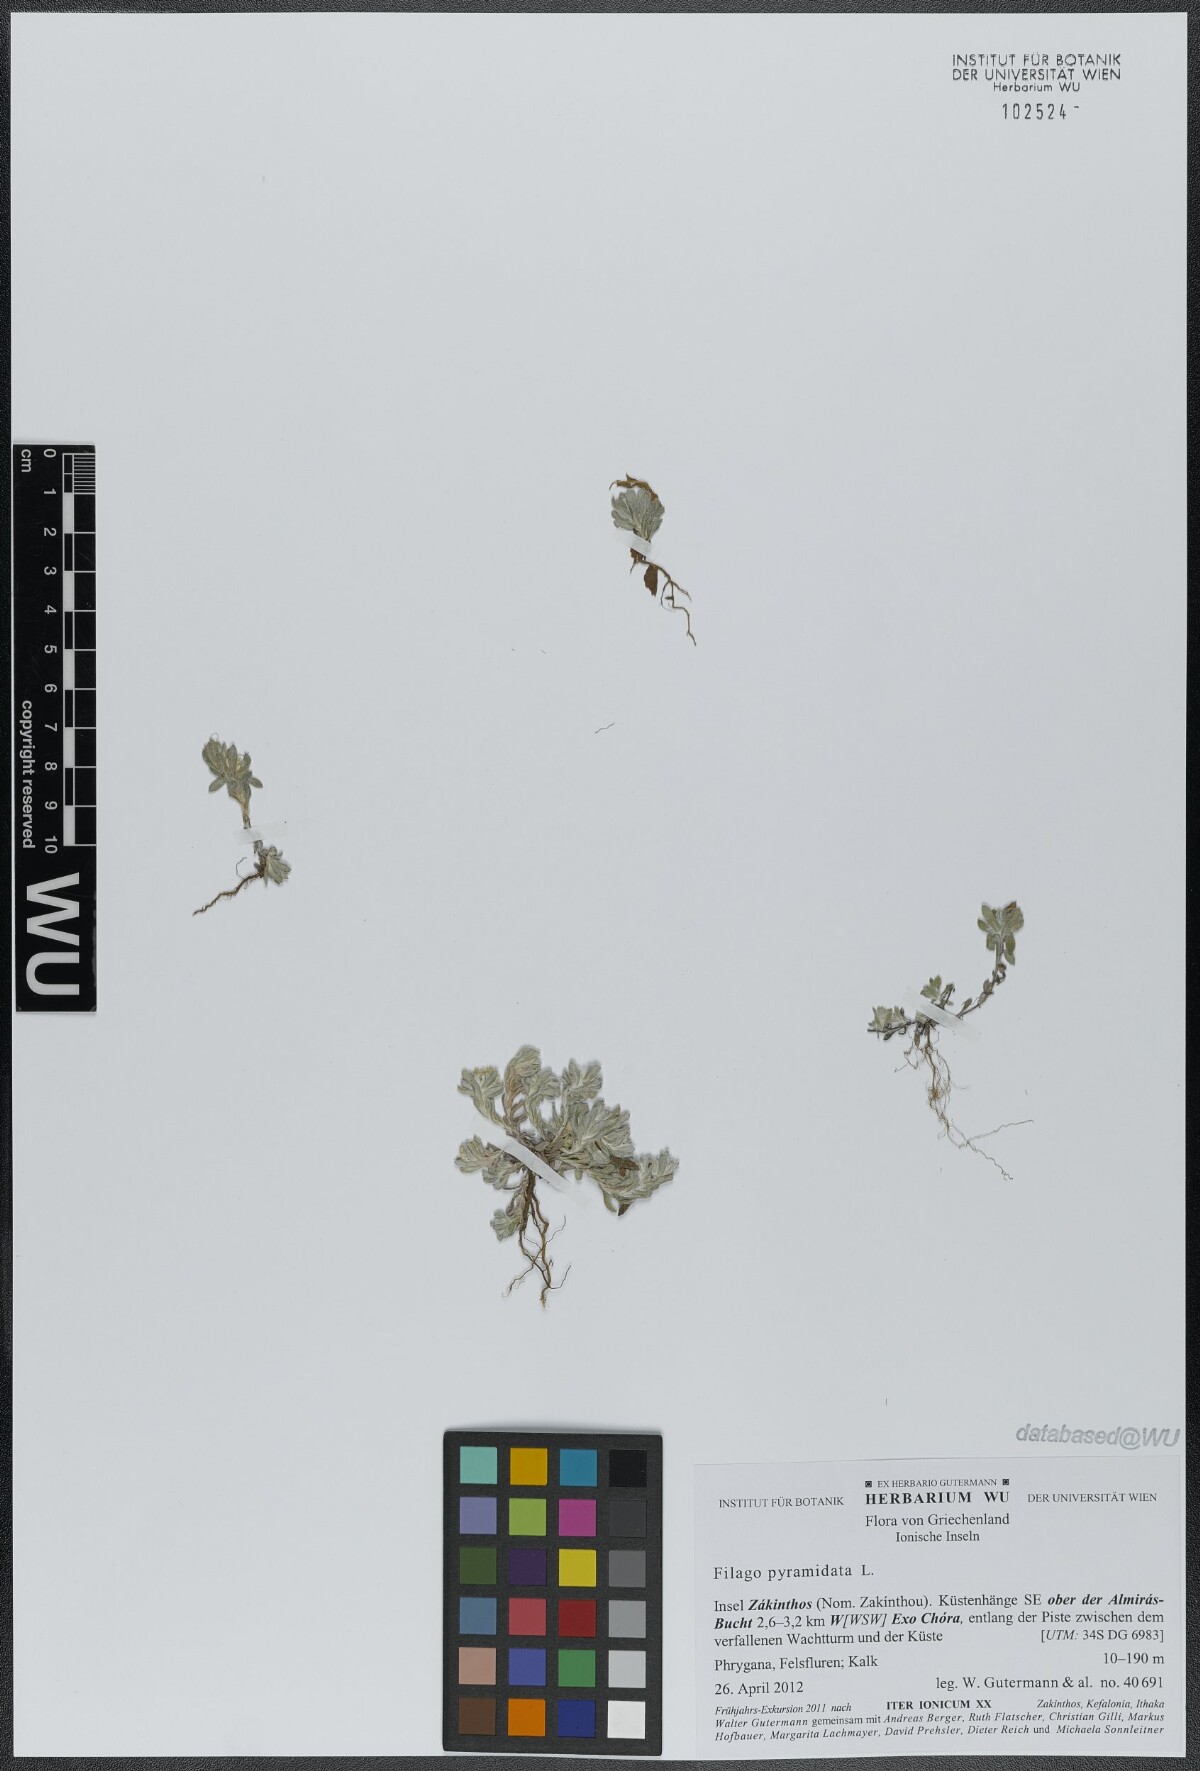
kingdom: Plantae
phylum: Tracheophyta
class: Magnoliopsida
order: Asterales
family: Asteraceae
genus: Filago
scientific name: Filago pyramidata
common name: Broad-leaved cudweed
